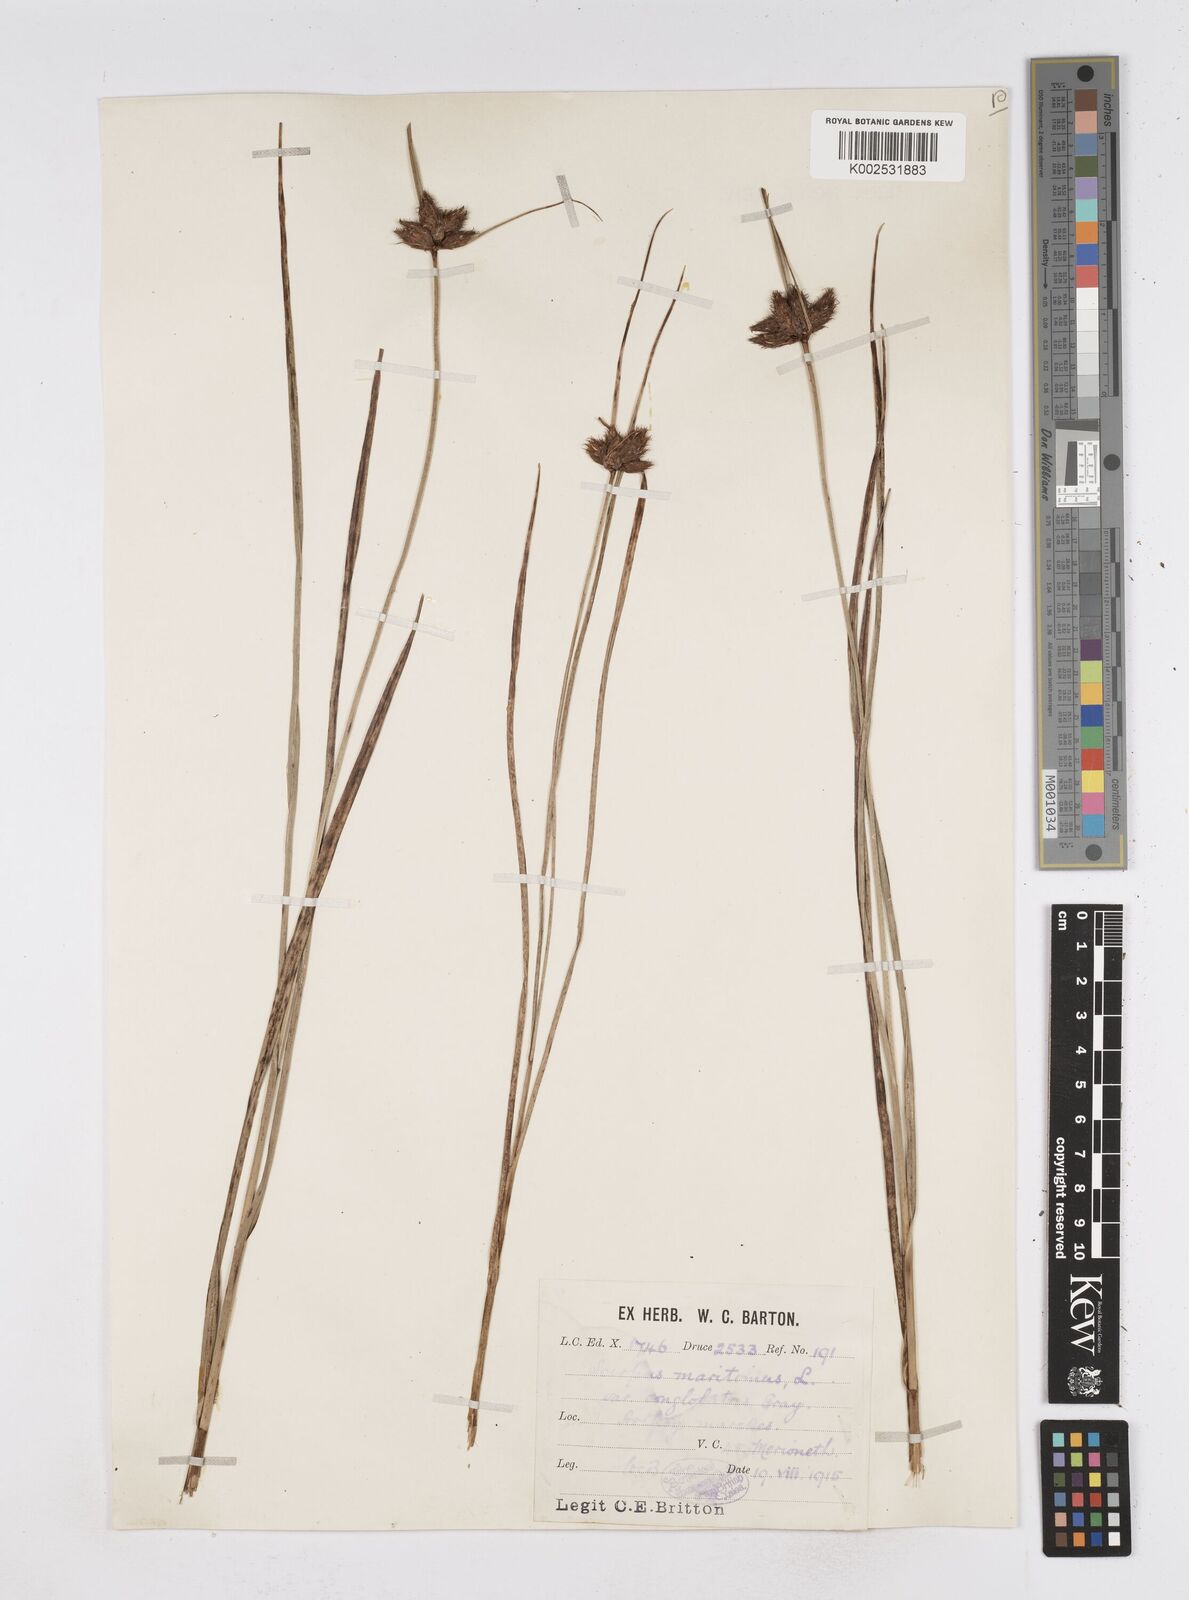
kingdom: Plantae
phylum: Tracheophyta
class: Liliopsida
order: Poales
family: Cyperaceae
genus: Bolboschoenus
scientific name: Bolboschoenus maritimus
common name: Sea club-rush
